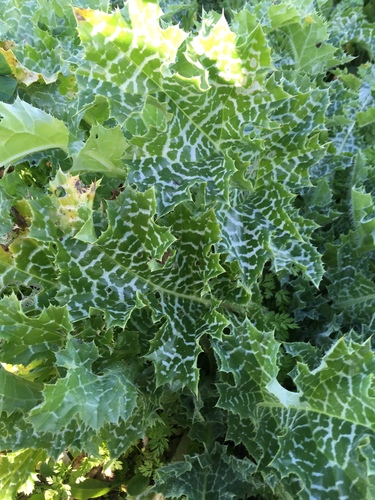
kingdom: Plantae
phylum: Tracheophyta
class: Magnoliopsida
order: Asterales
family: Asteraceae
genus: Silybum
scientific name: Silybum marianum
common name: Milk thistle
